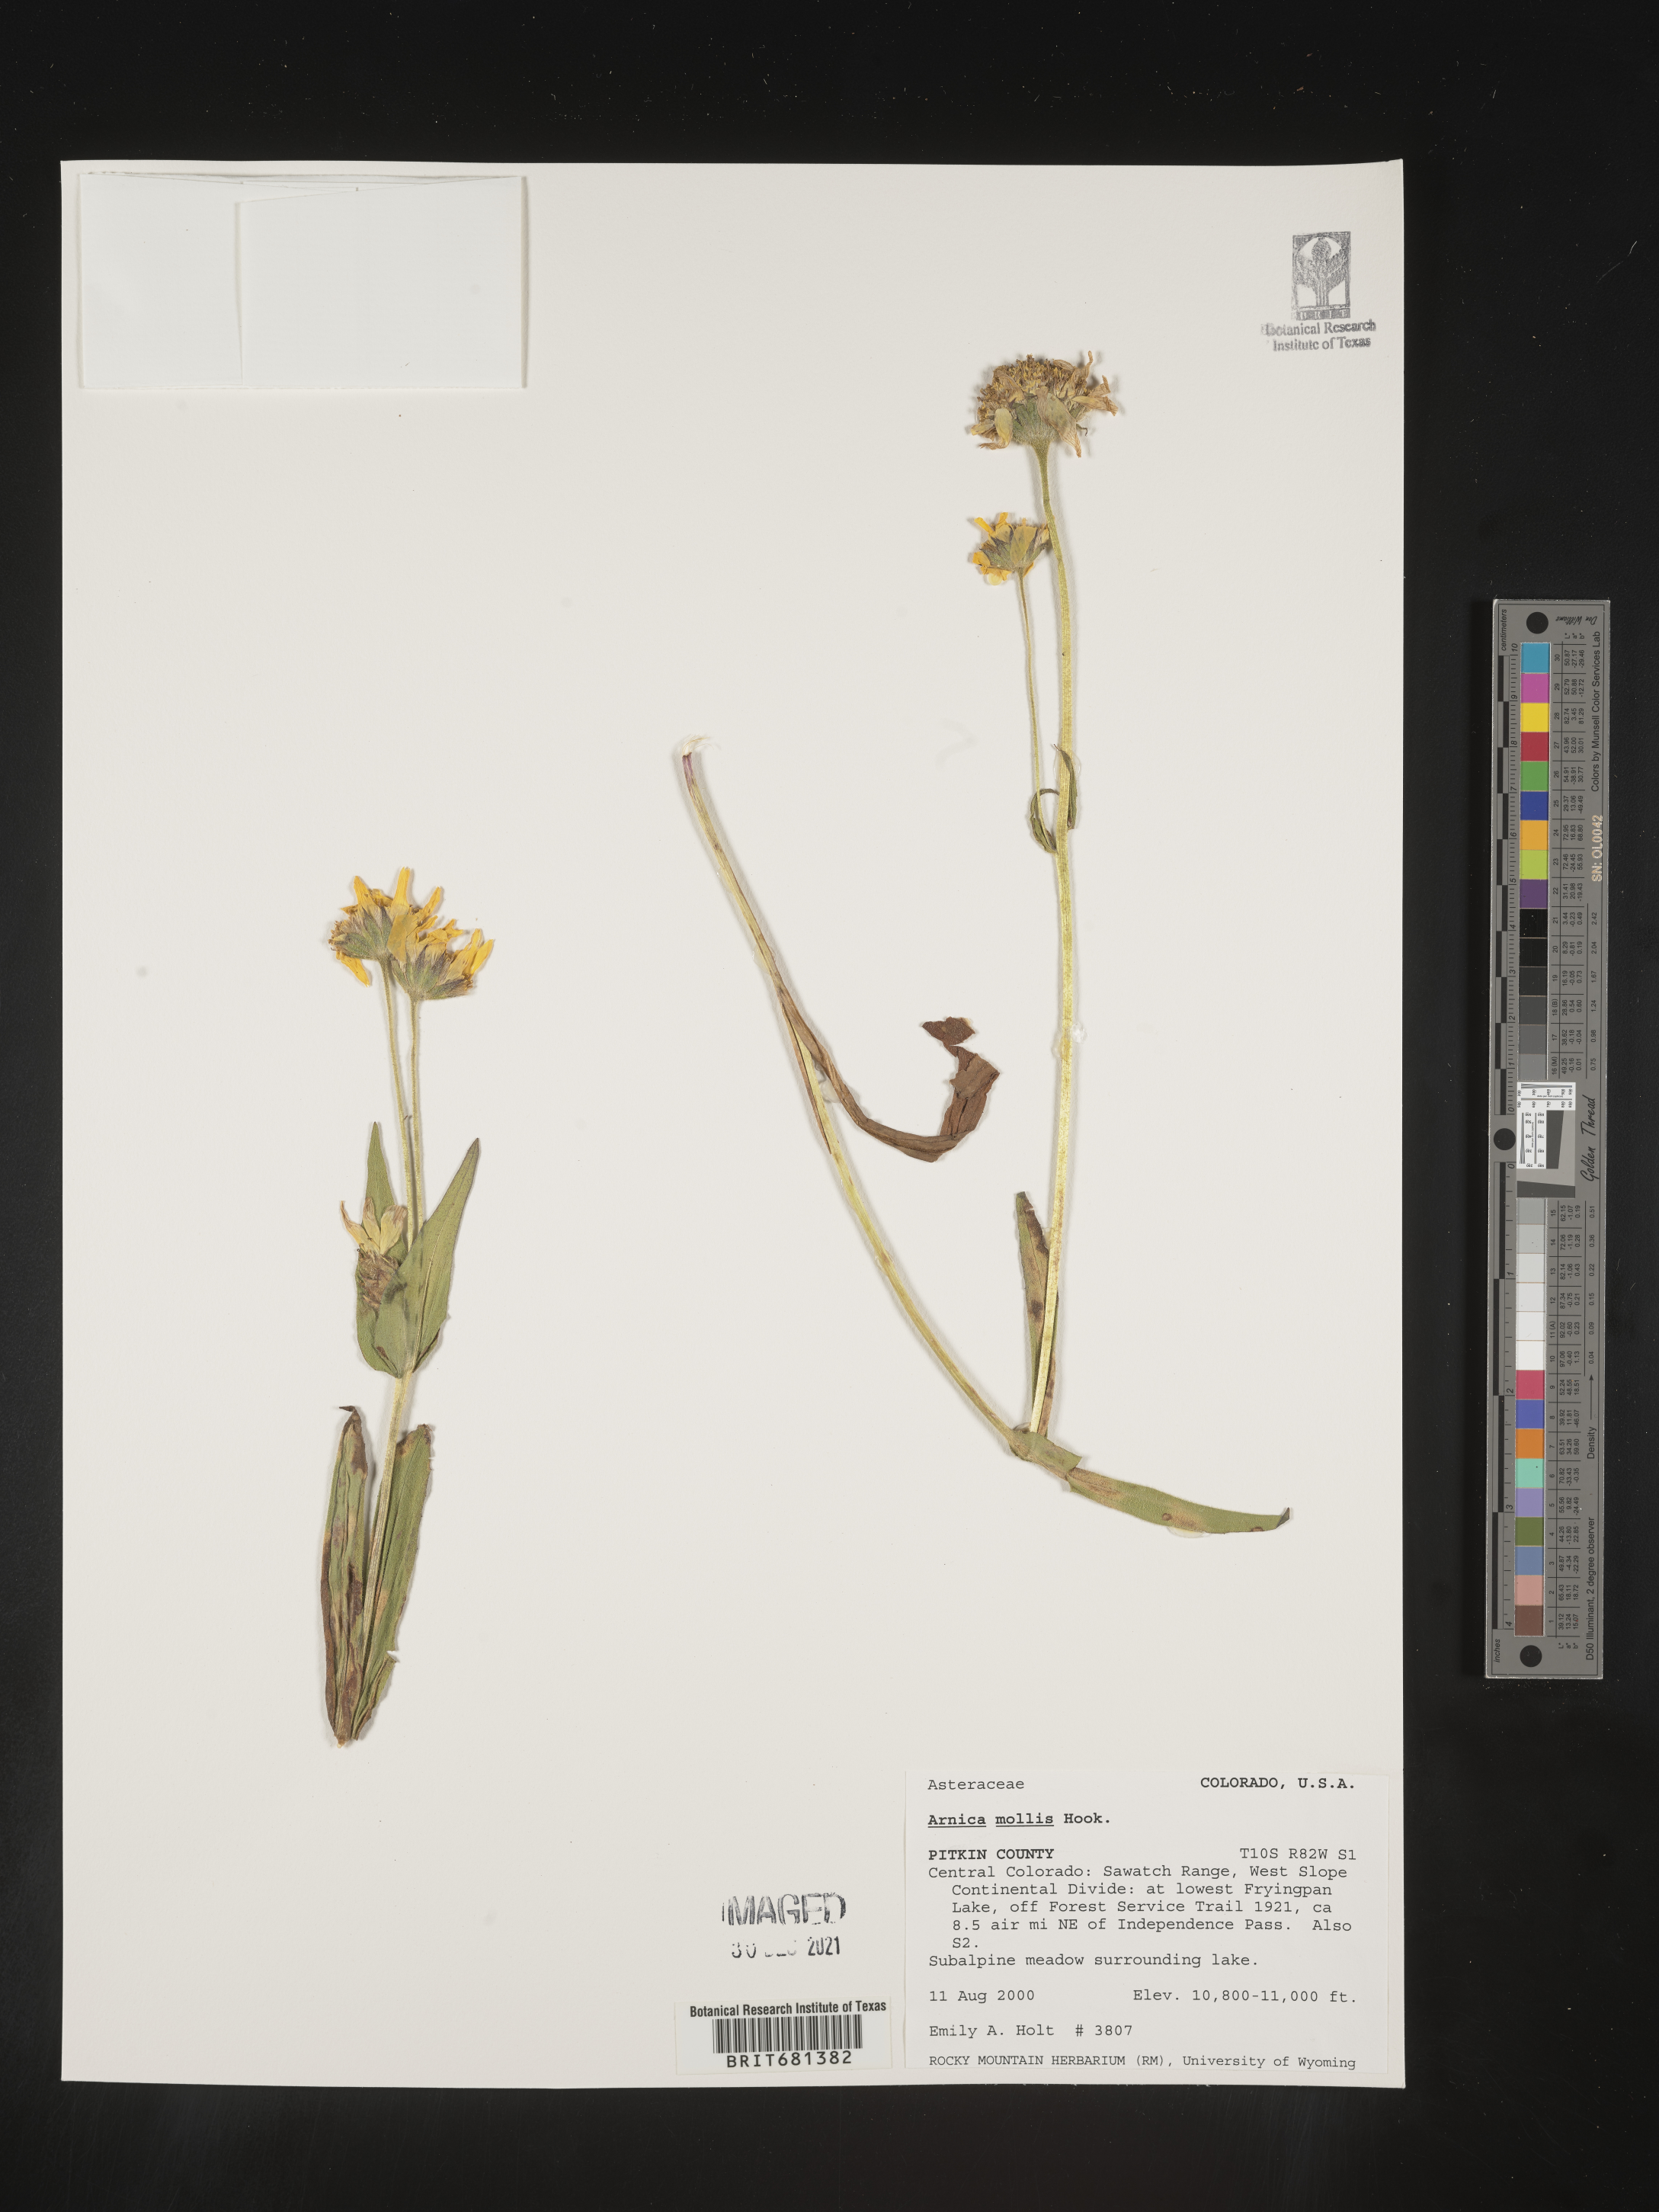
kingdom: Plantae
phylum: Tracheophyta
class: Magnoliopsida
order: Asterales
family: Asteraceae
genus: Arnica
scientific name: Arnica mollis
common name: Hairy arnica
